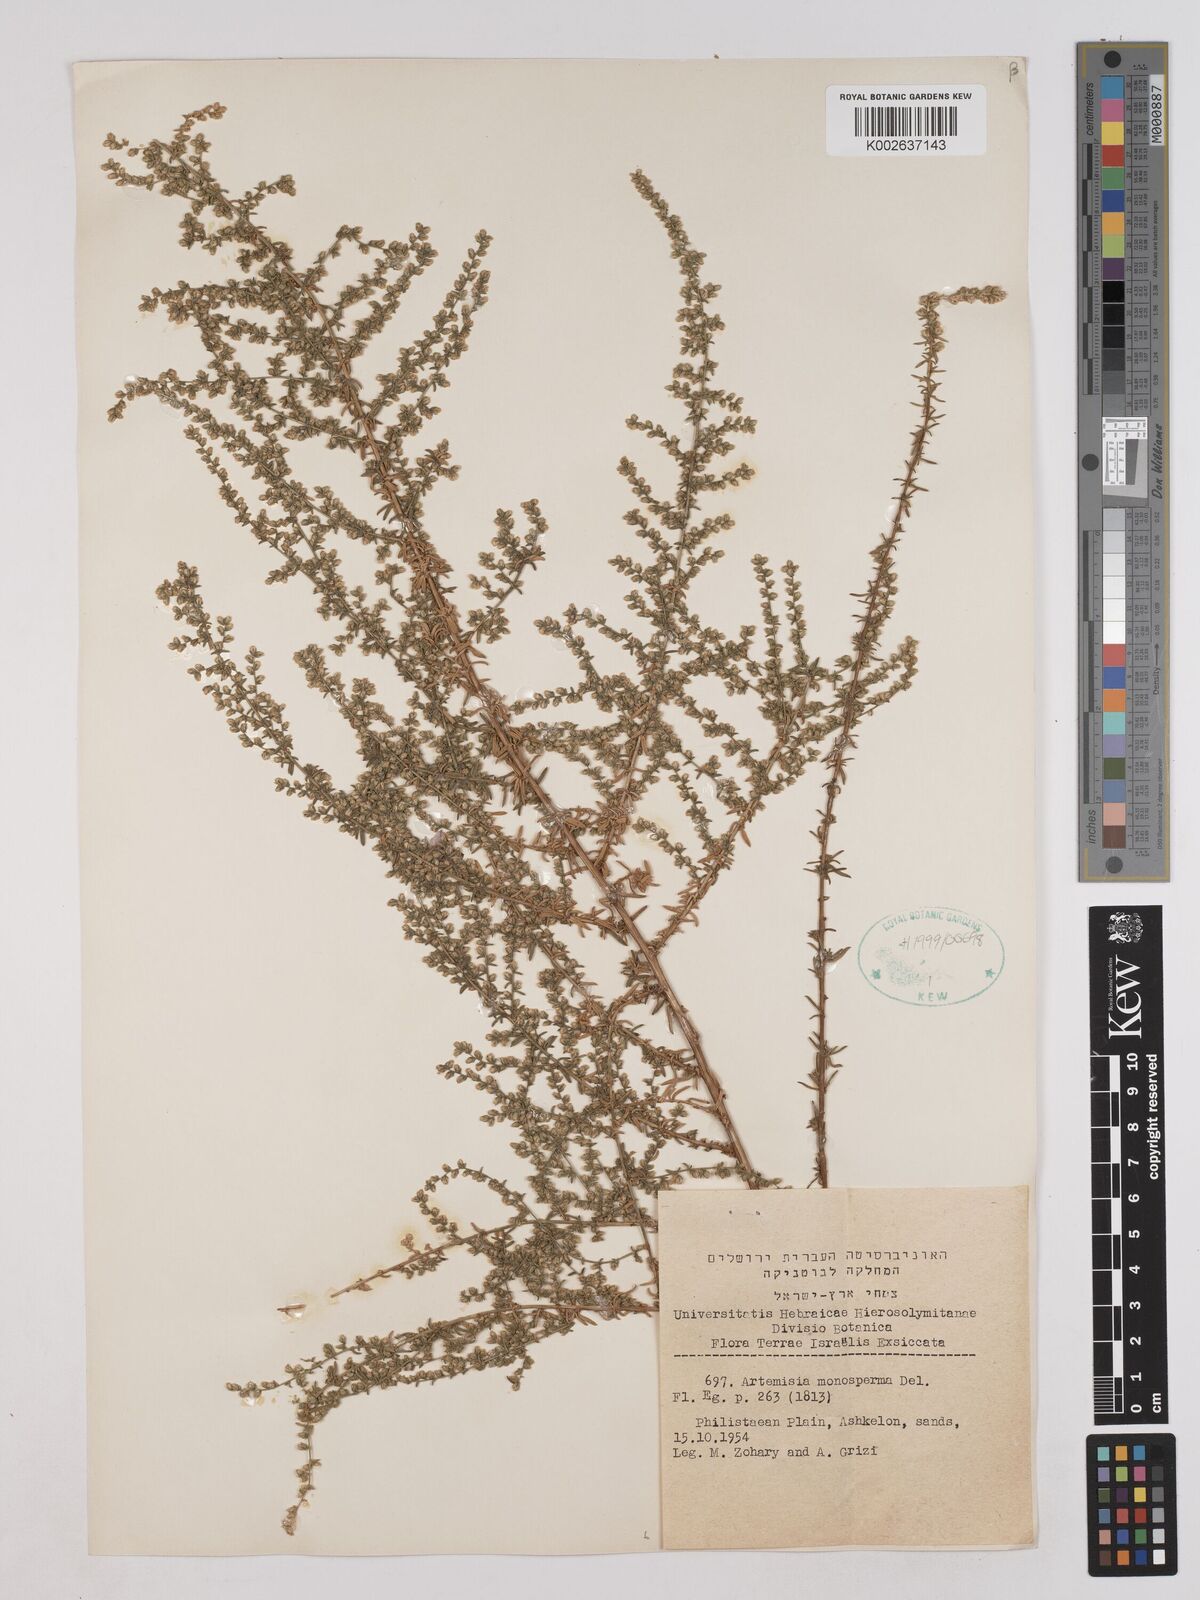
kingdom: Plantae
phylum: Tracheophyta
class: Magnoliopsida
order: Asterales
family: Asteraceae
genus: Artemisia
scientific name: Artemisia monosperma
